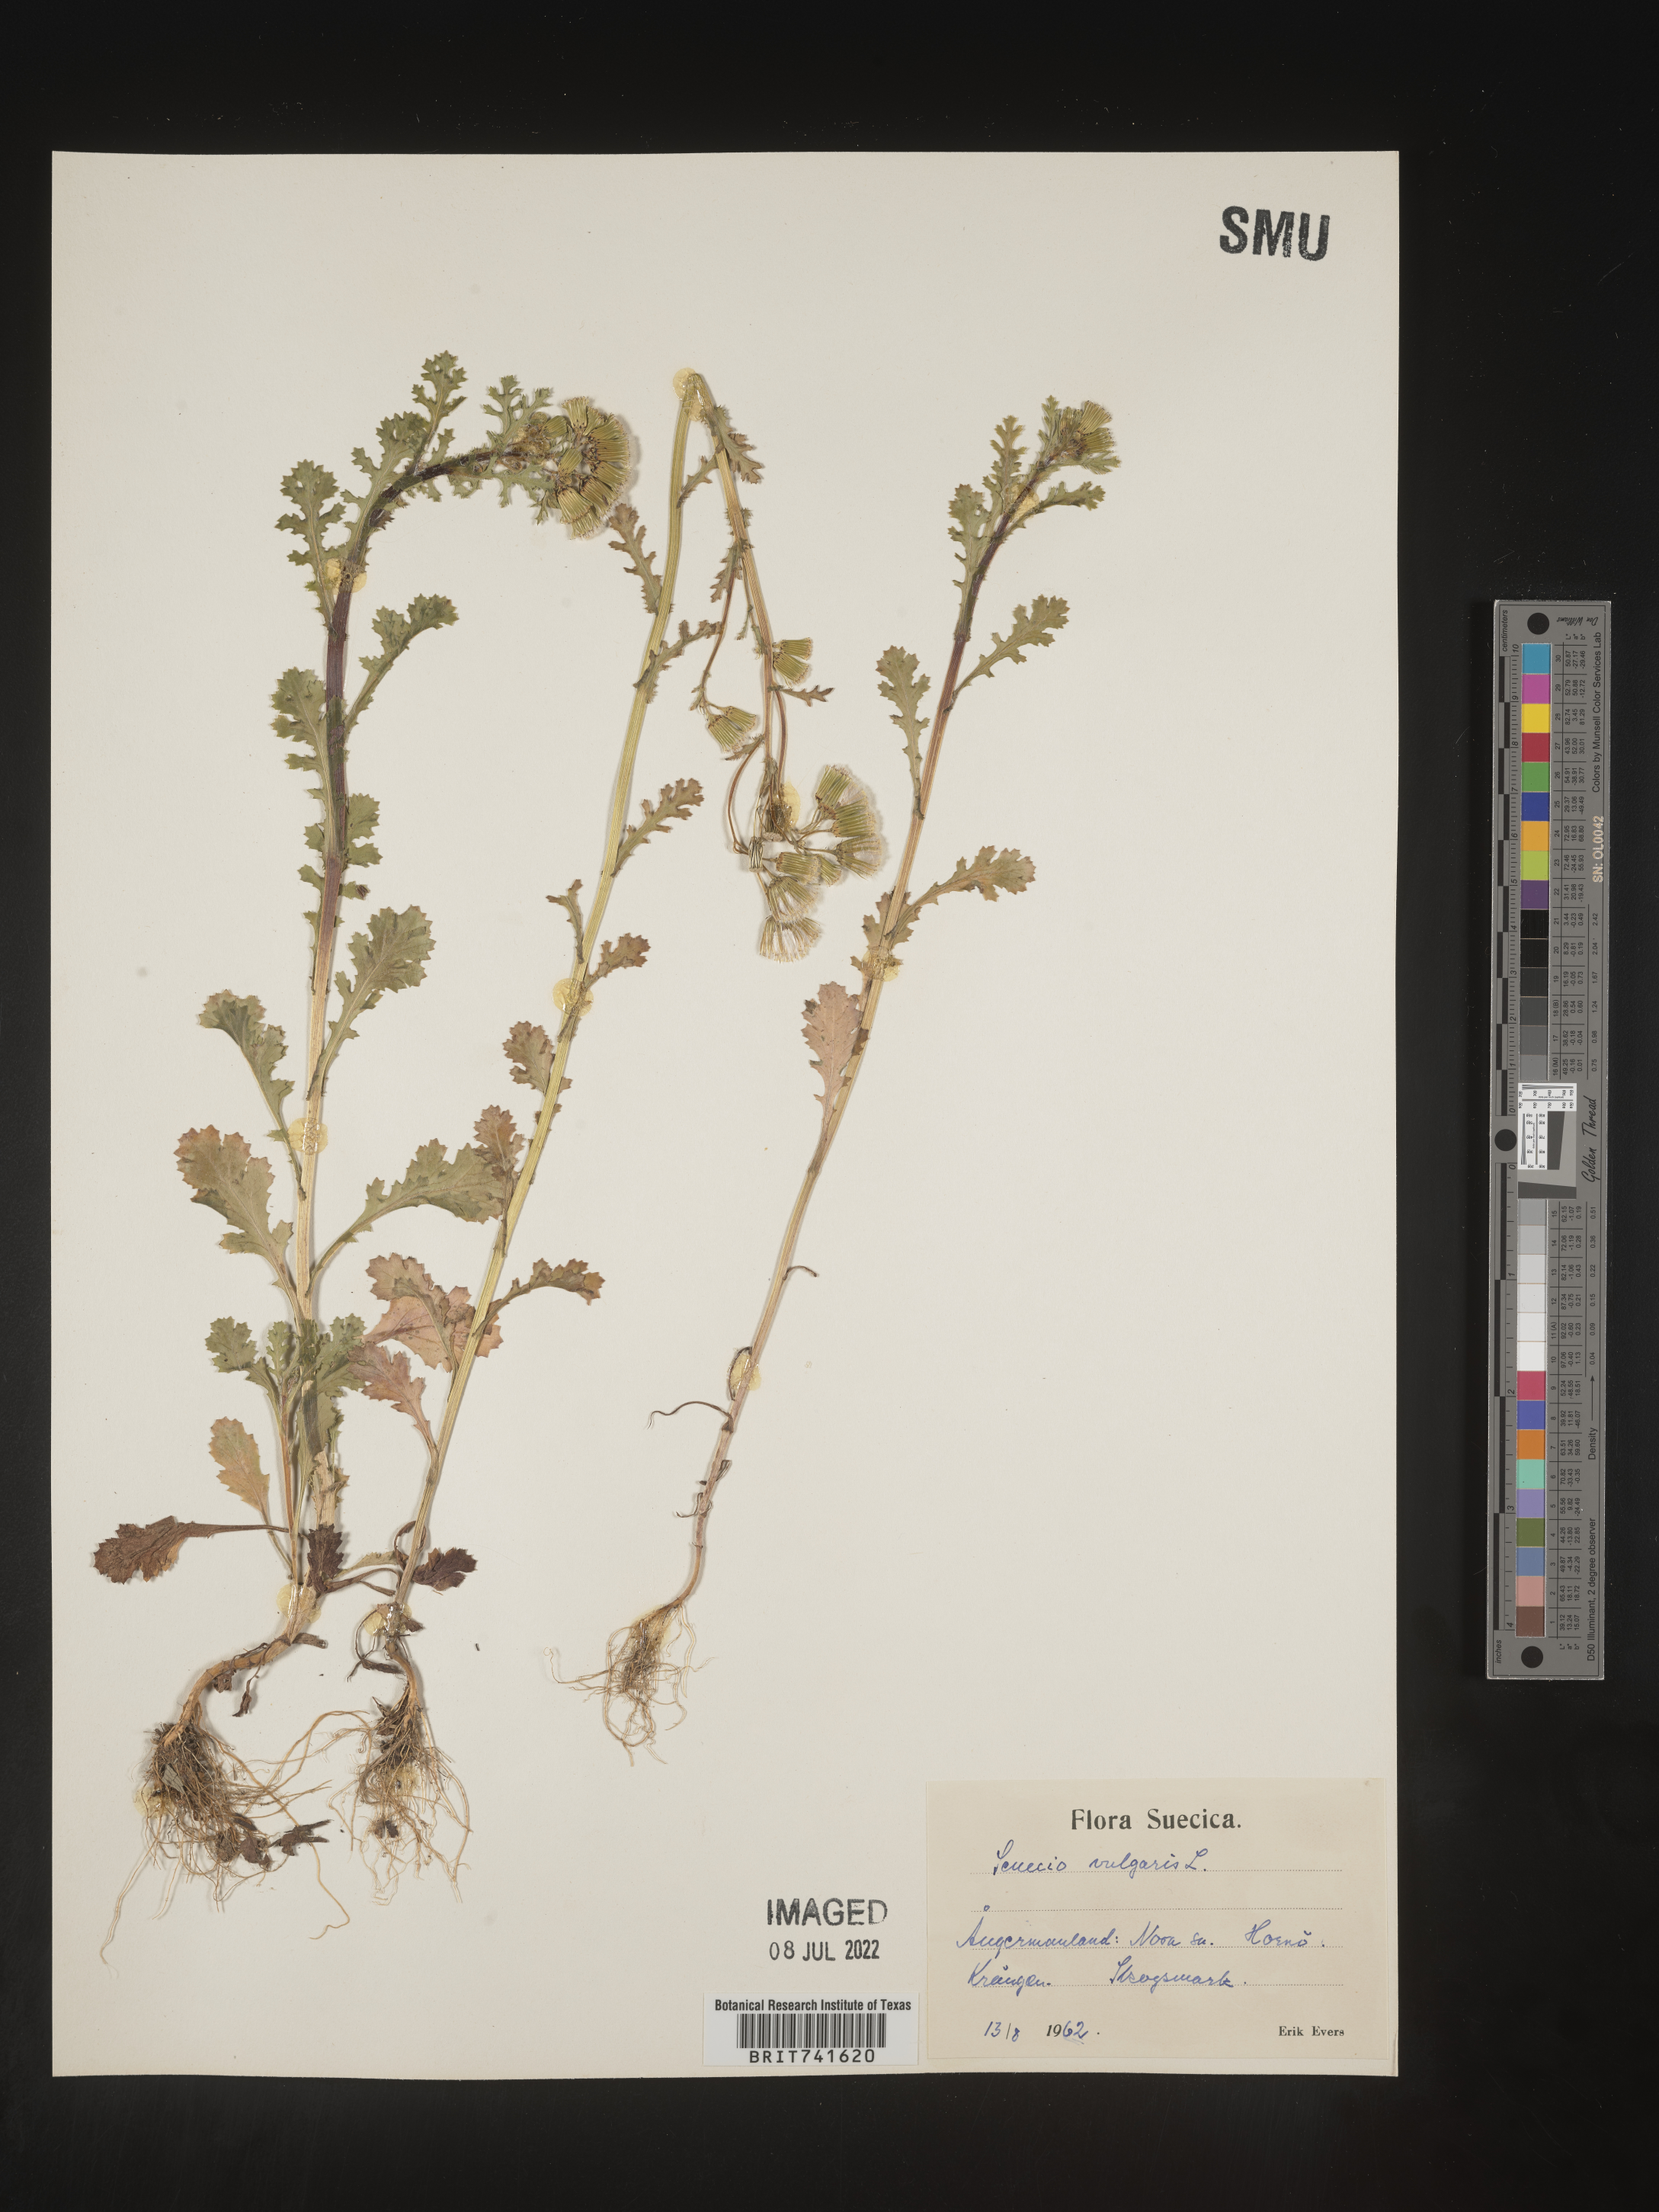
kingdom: Plantae
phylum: Tracheophyta
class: Magnoliopsida
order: Asterales
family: Asteraceae
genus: Senecio
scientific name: Senecio
